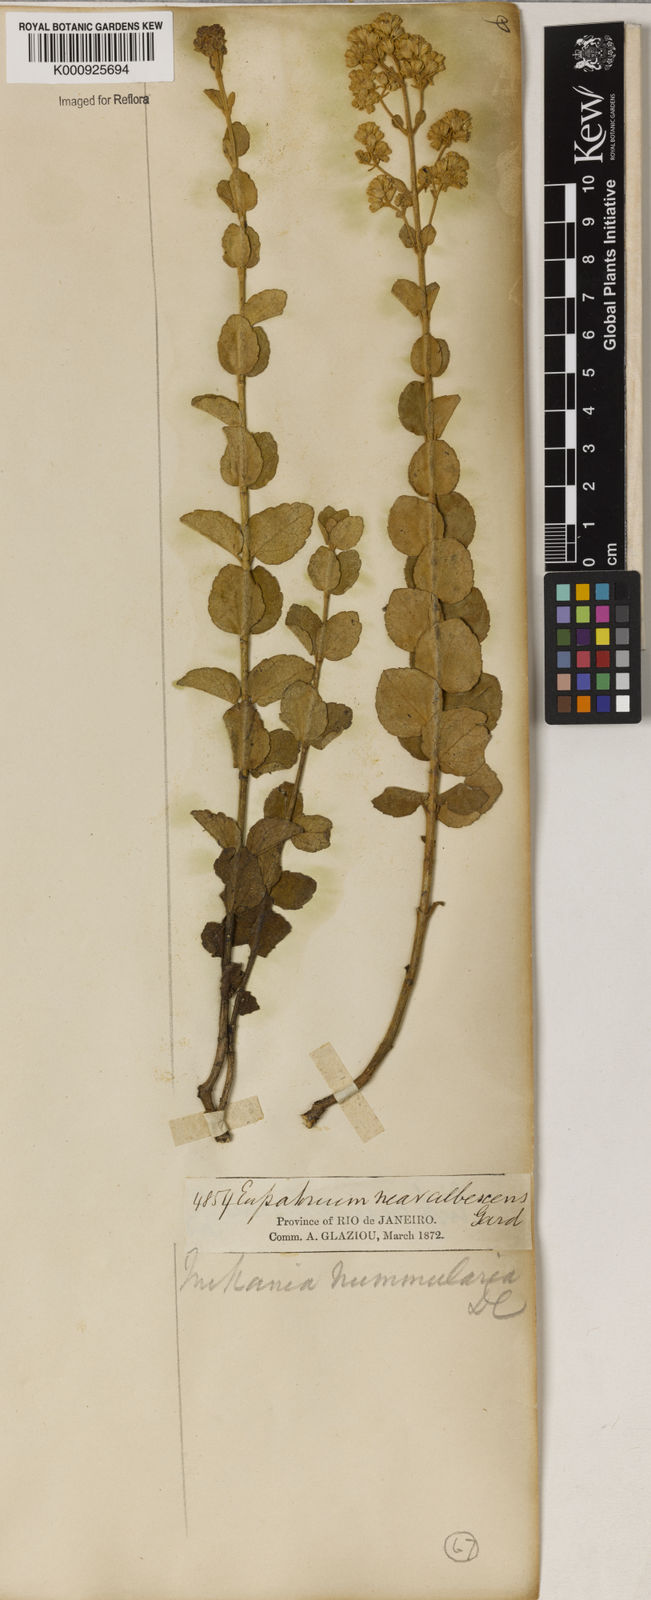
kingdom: Plantae
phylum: Tracheophyta
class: Magnoliopsida
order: Asterales
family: Asteraceae
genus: Mikania
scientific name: Mikania nummularia
